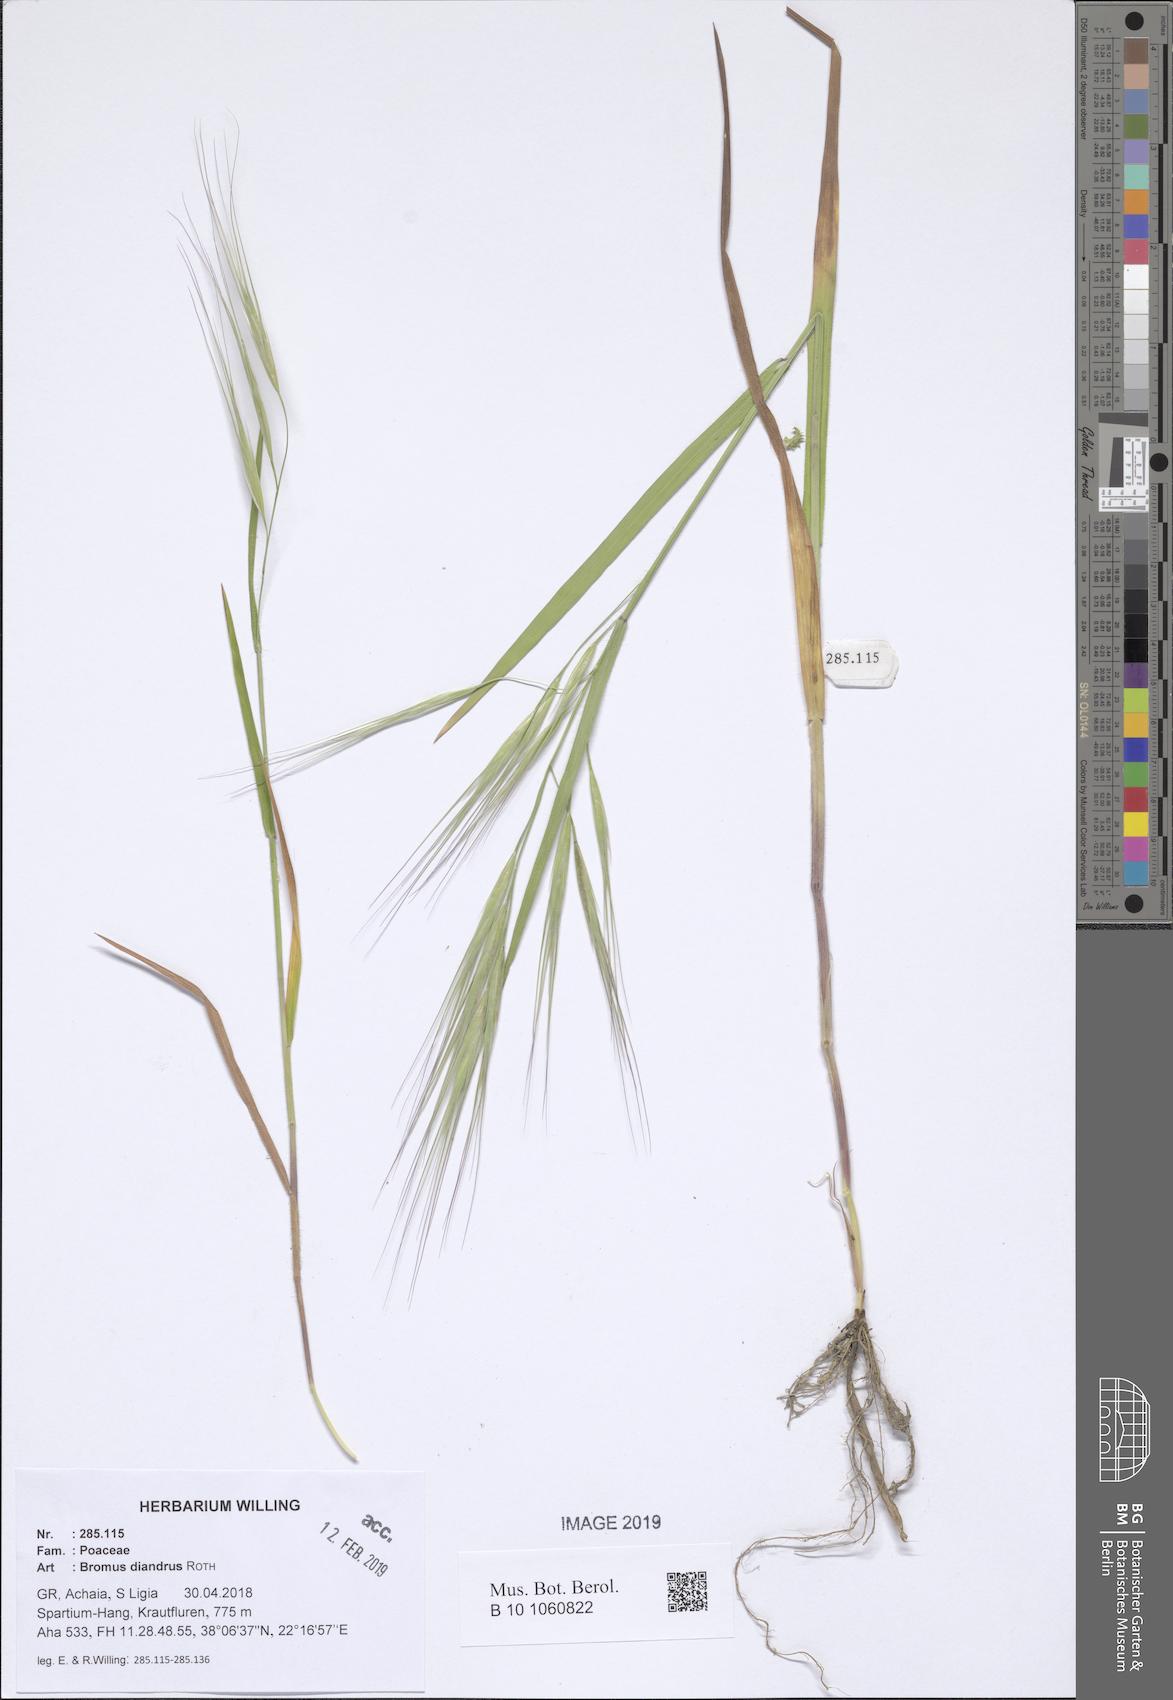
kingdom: Plantae
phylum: Tracheophyta
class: Liliopsida
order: Poales
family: Poaceae
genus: Bromus
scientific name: Bromus diandrus
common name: Ripgut brome
